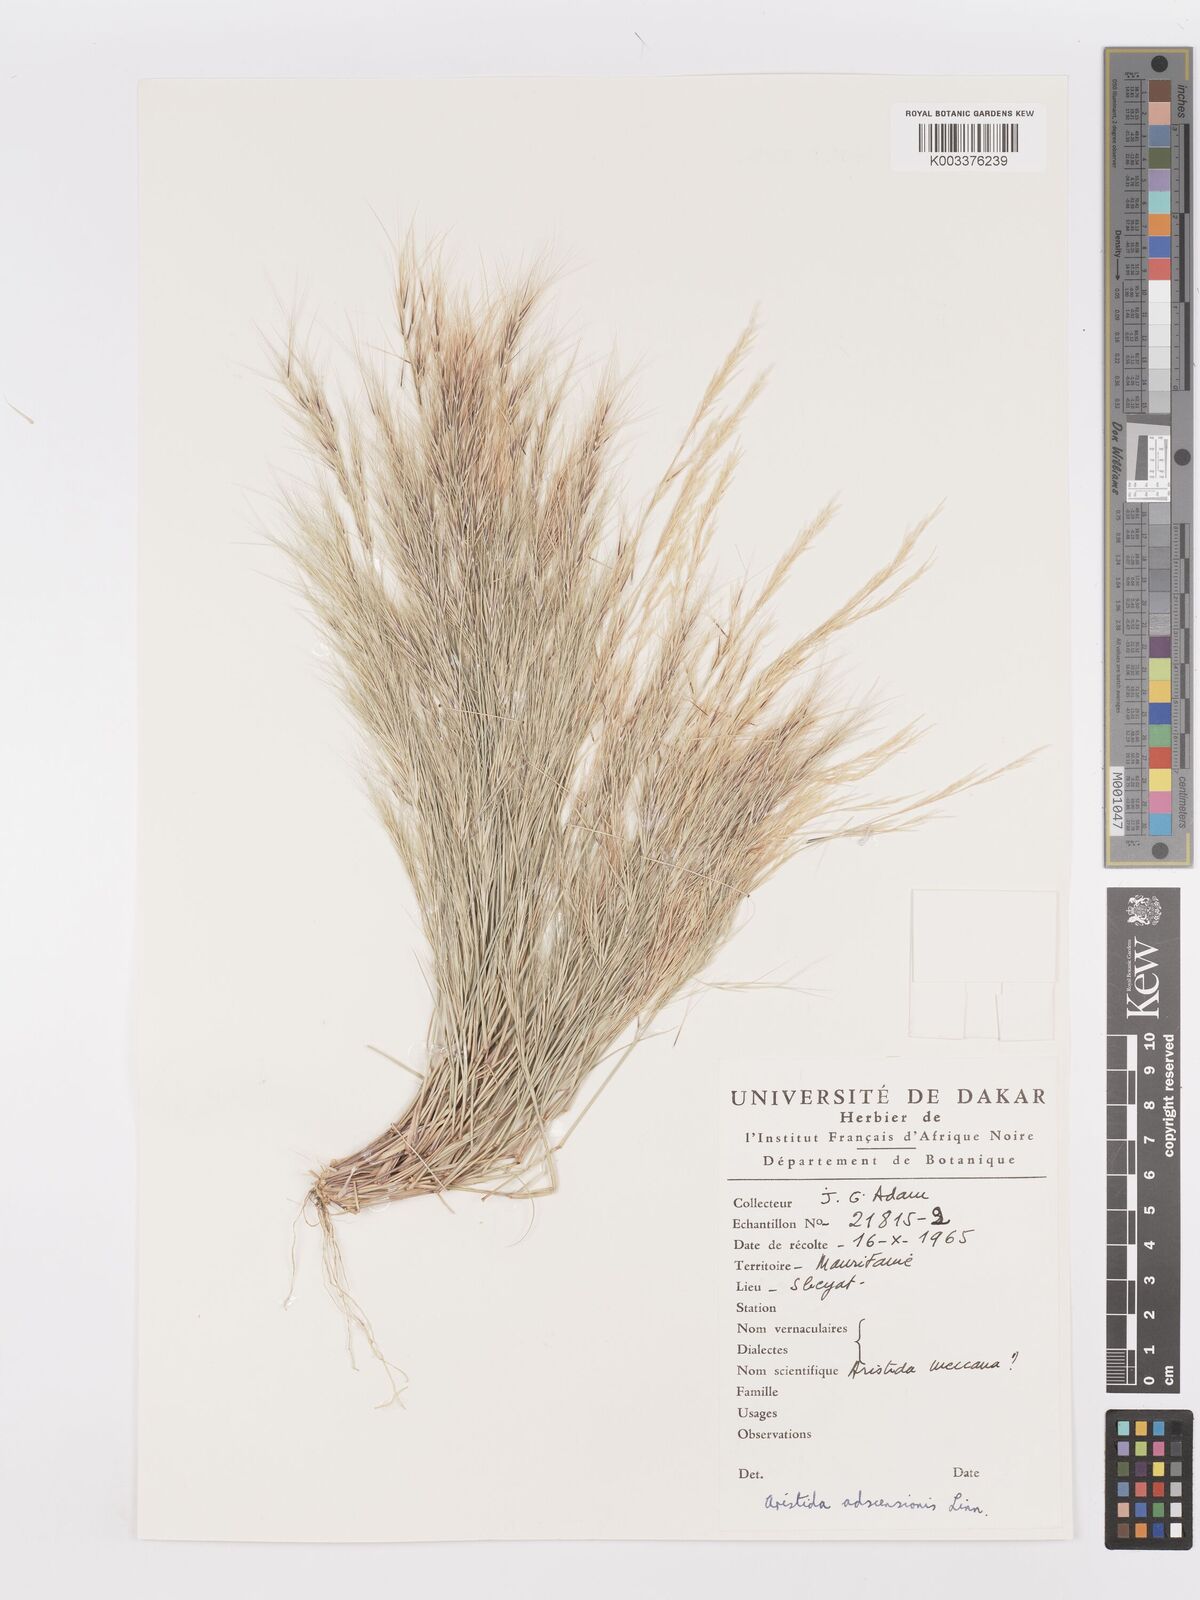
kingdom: Plantae
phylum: Tracheophyta
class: Liliopsida
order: Poales
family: Poaceae
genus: Aristida
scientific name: Aristida adscensionis
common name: Sixweeks threeawn
